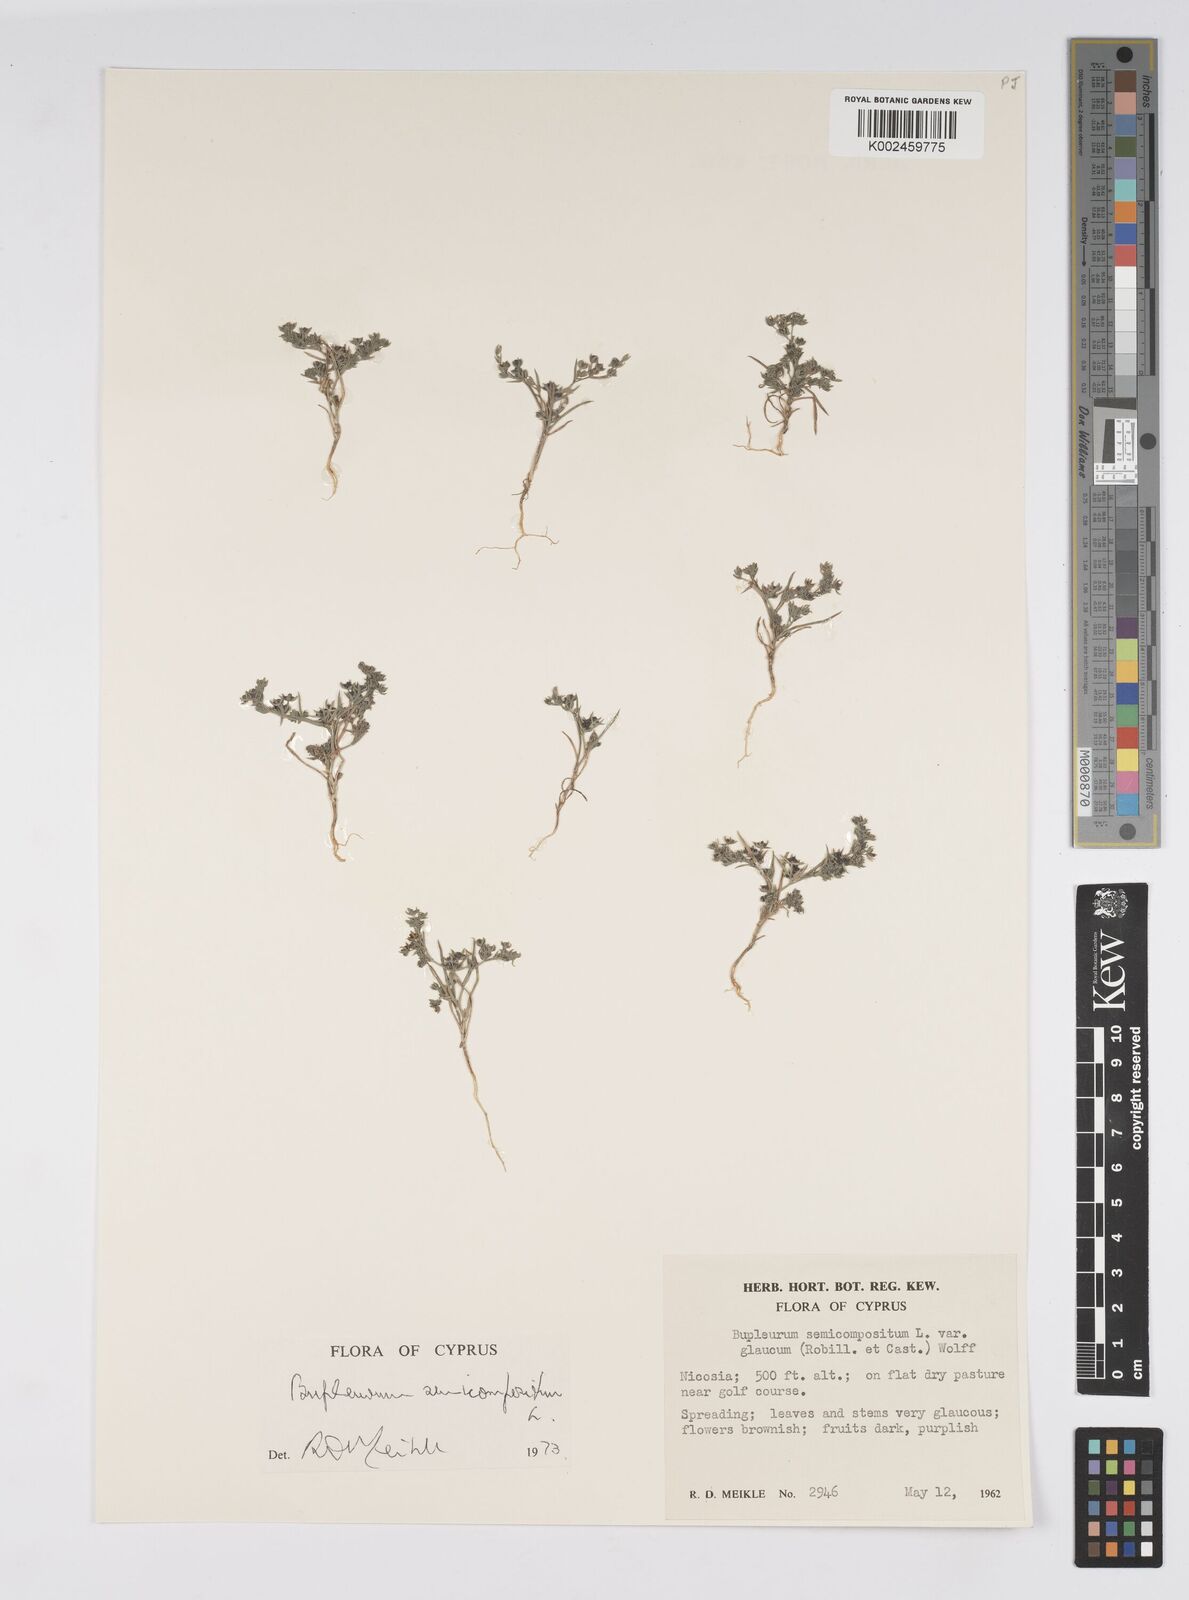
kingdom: Plantae
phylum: Tracheophyta
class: Magnoliopsida
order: Apiales
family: Apiaceae
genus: Bupleurum
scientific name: Bupleurum semicompositum
